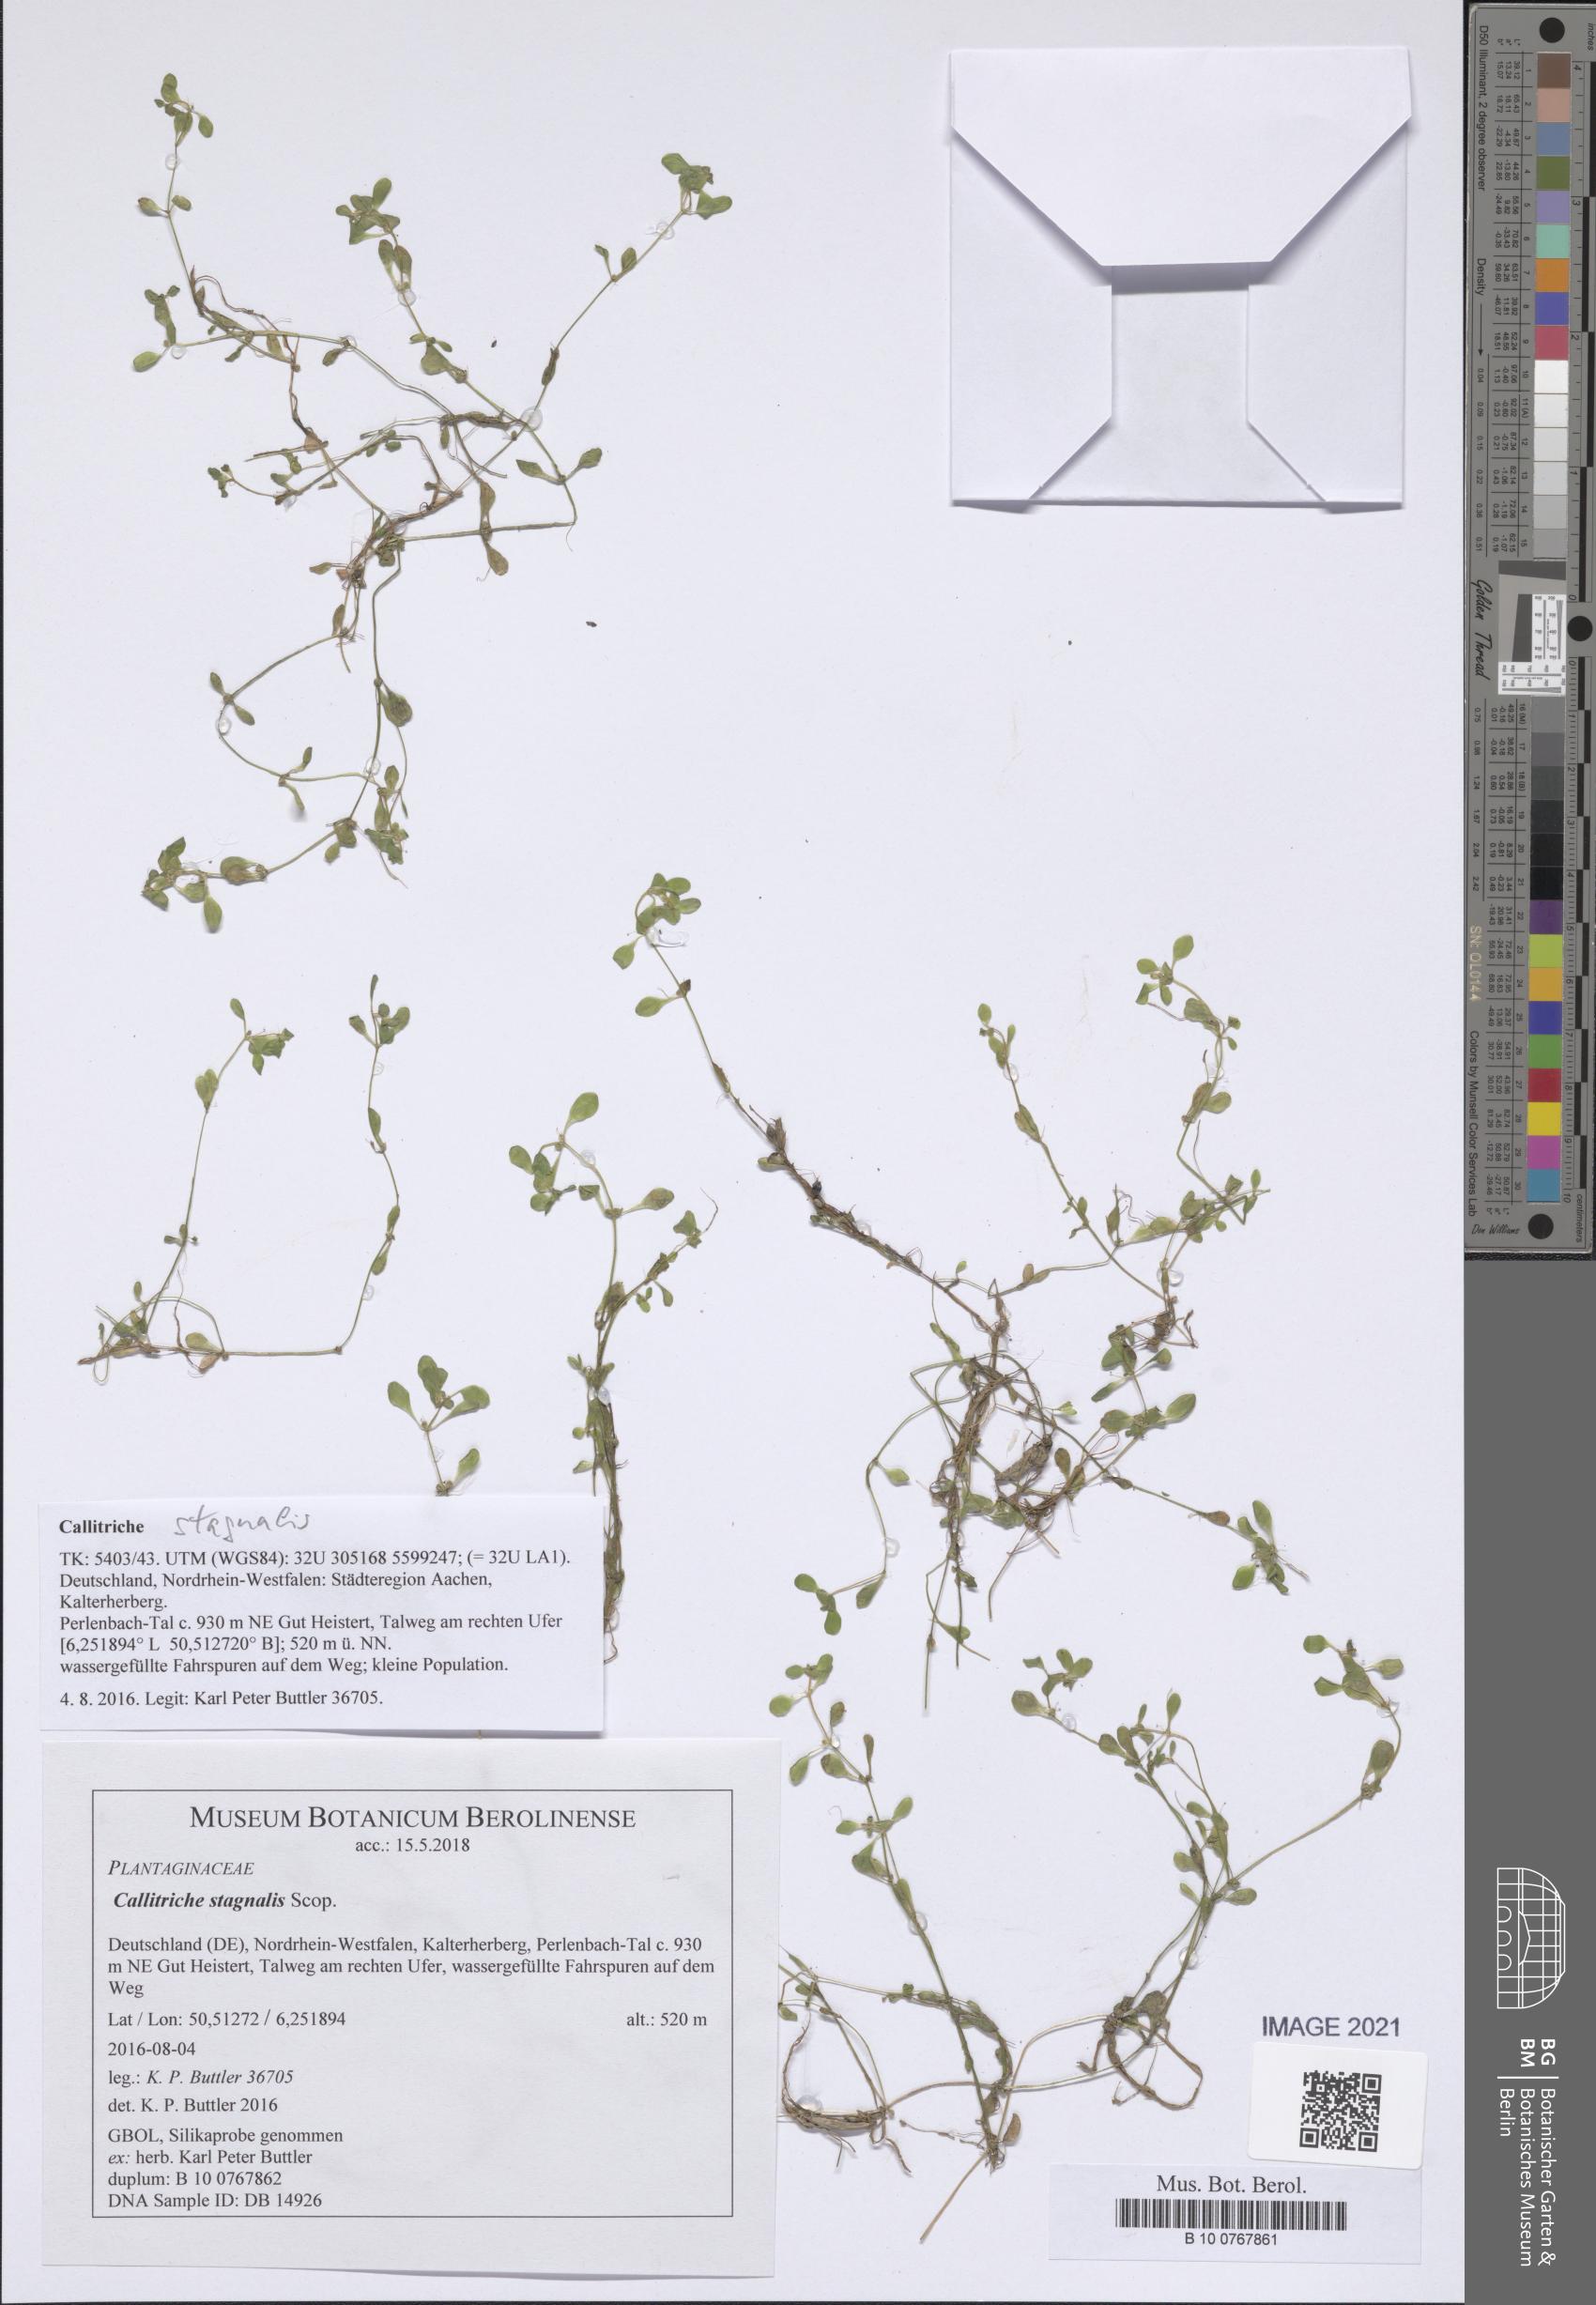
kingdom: Plantae
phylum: Tracheophyta
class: Magnoliopsida
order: Lamiales
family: Plantaginaceae
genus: Callitriche
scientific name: Callitriche stagnalis
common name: Common water-starwort
